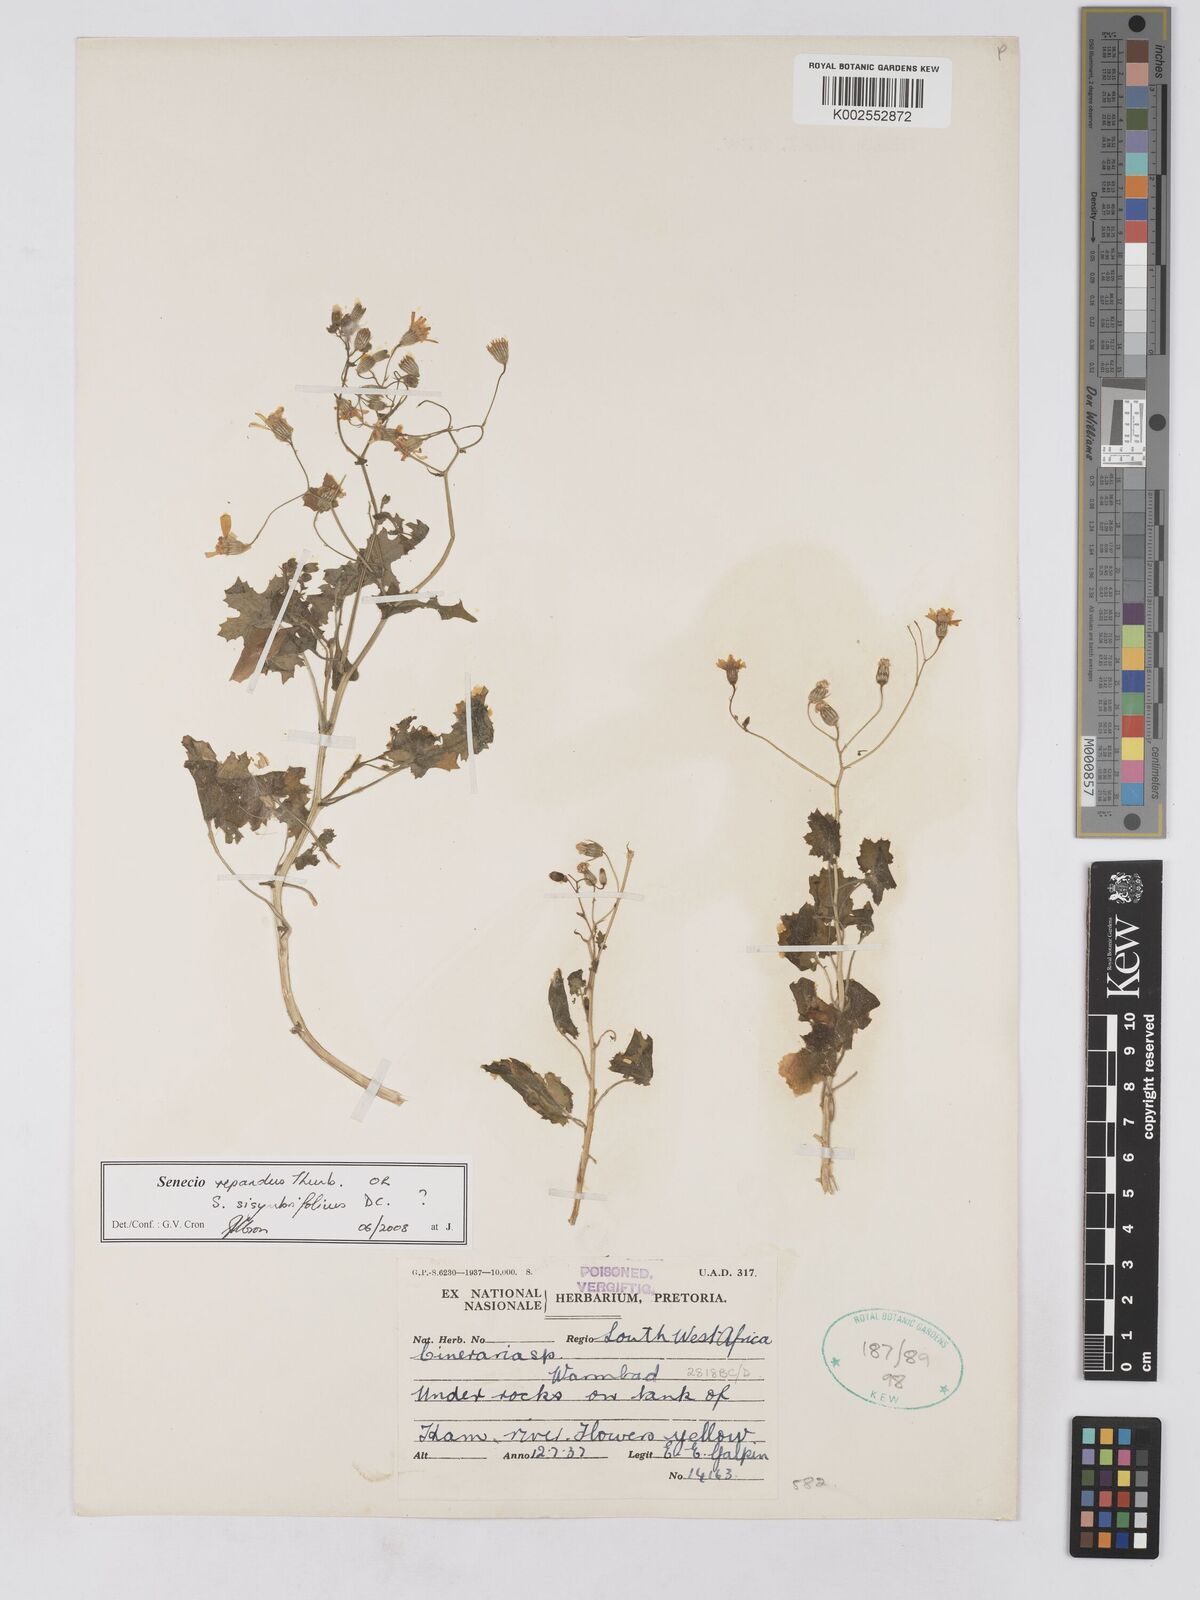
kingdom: Plantae
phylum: Tracheophyta
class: Magnoliopsida
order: Asterales
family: Asteraceae
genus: Senecio
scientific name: Senecio repandus
